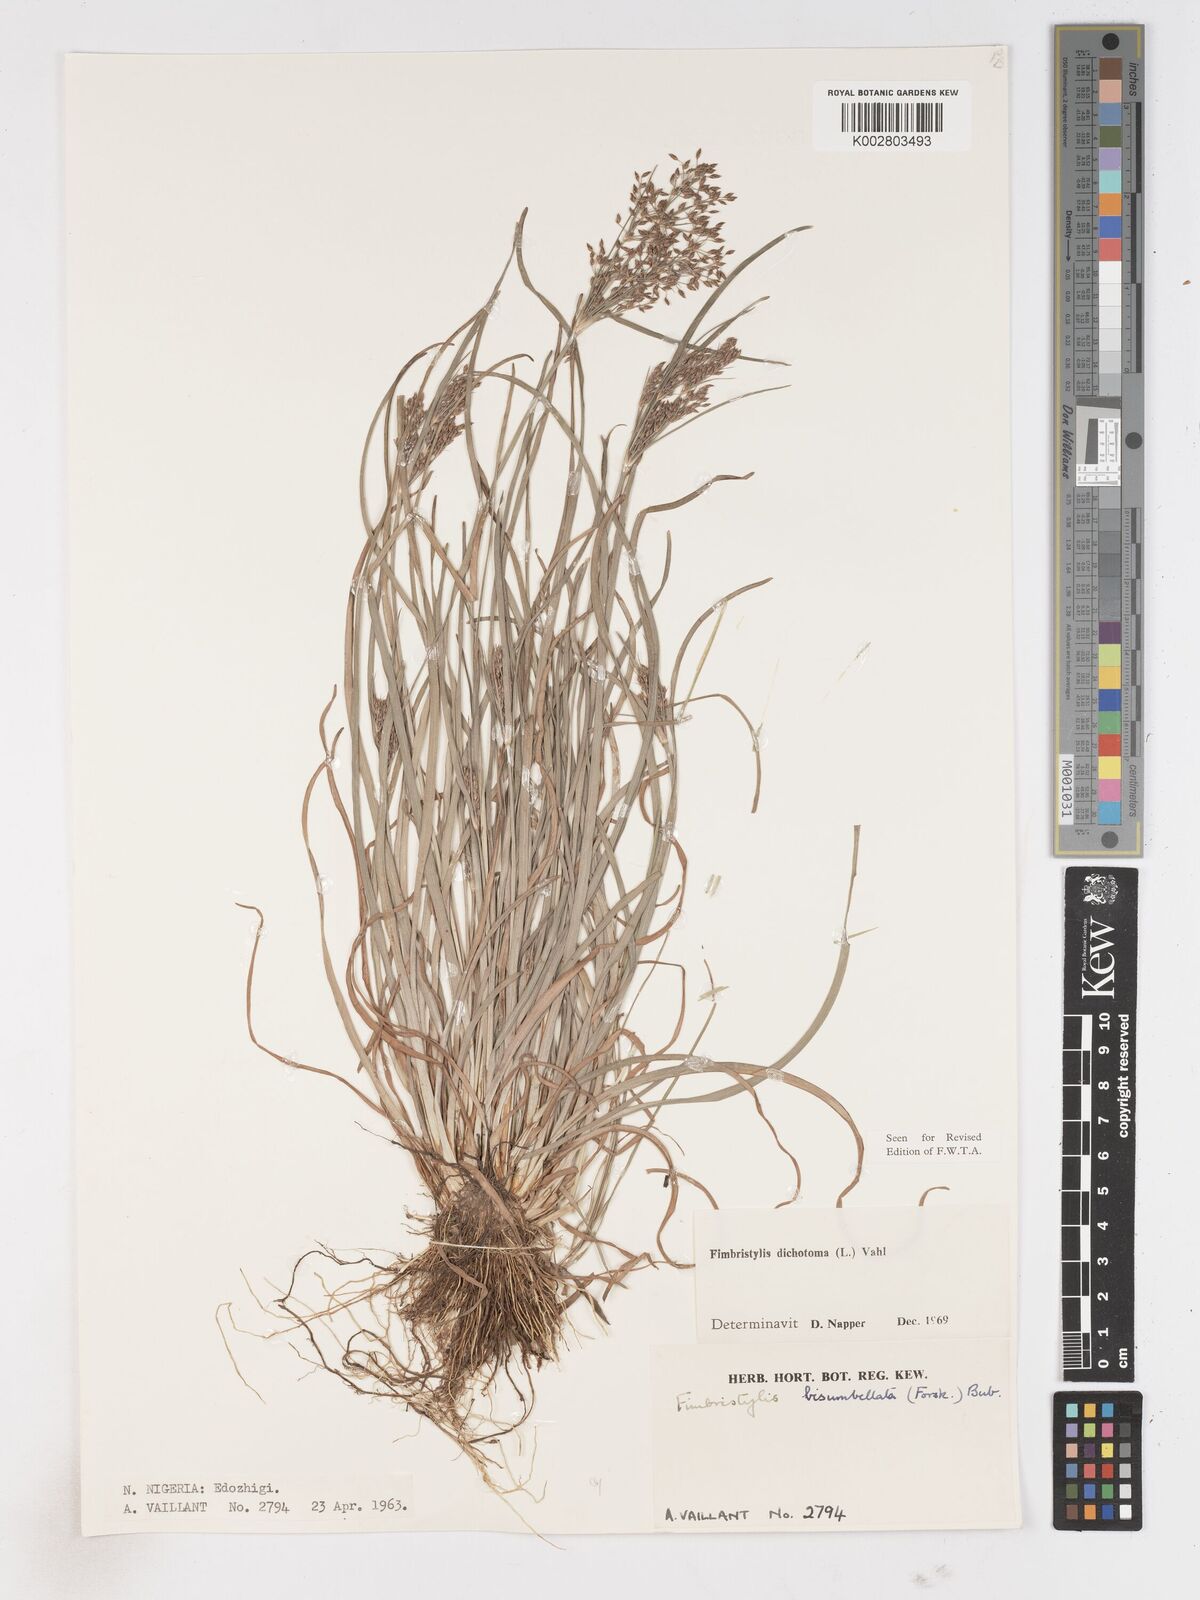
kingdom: Plantae
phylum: Tracheophyta
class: Liliopsida
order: Poales
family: Cyperaceae
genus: Fimbristylis
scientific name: Fimbristylis dichotoma
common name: Forked fimbry
